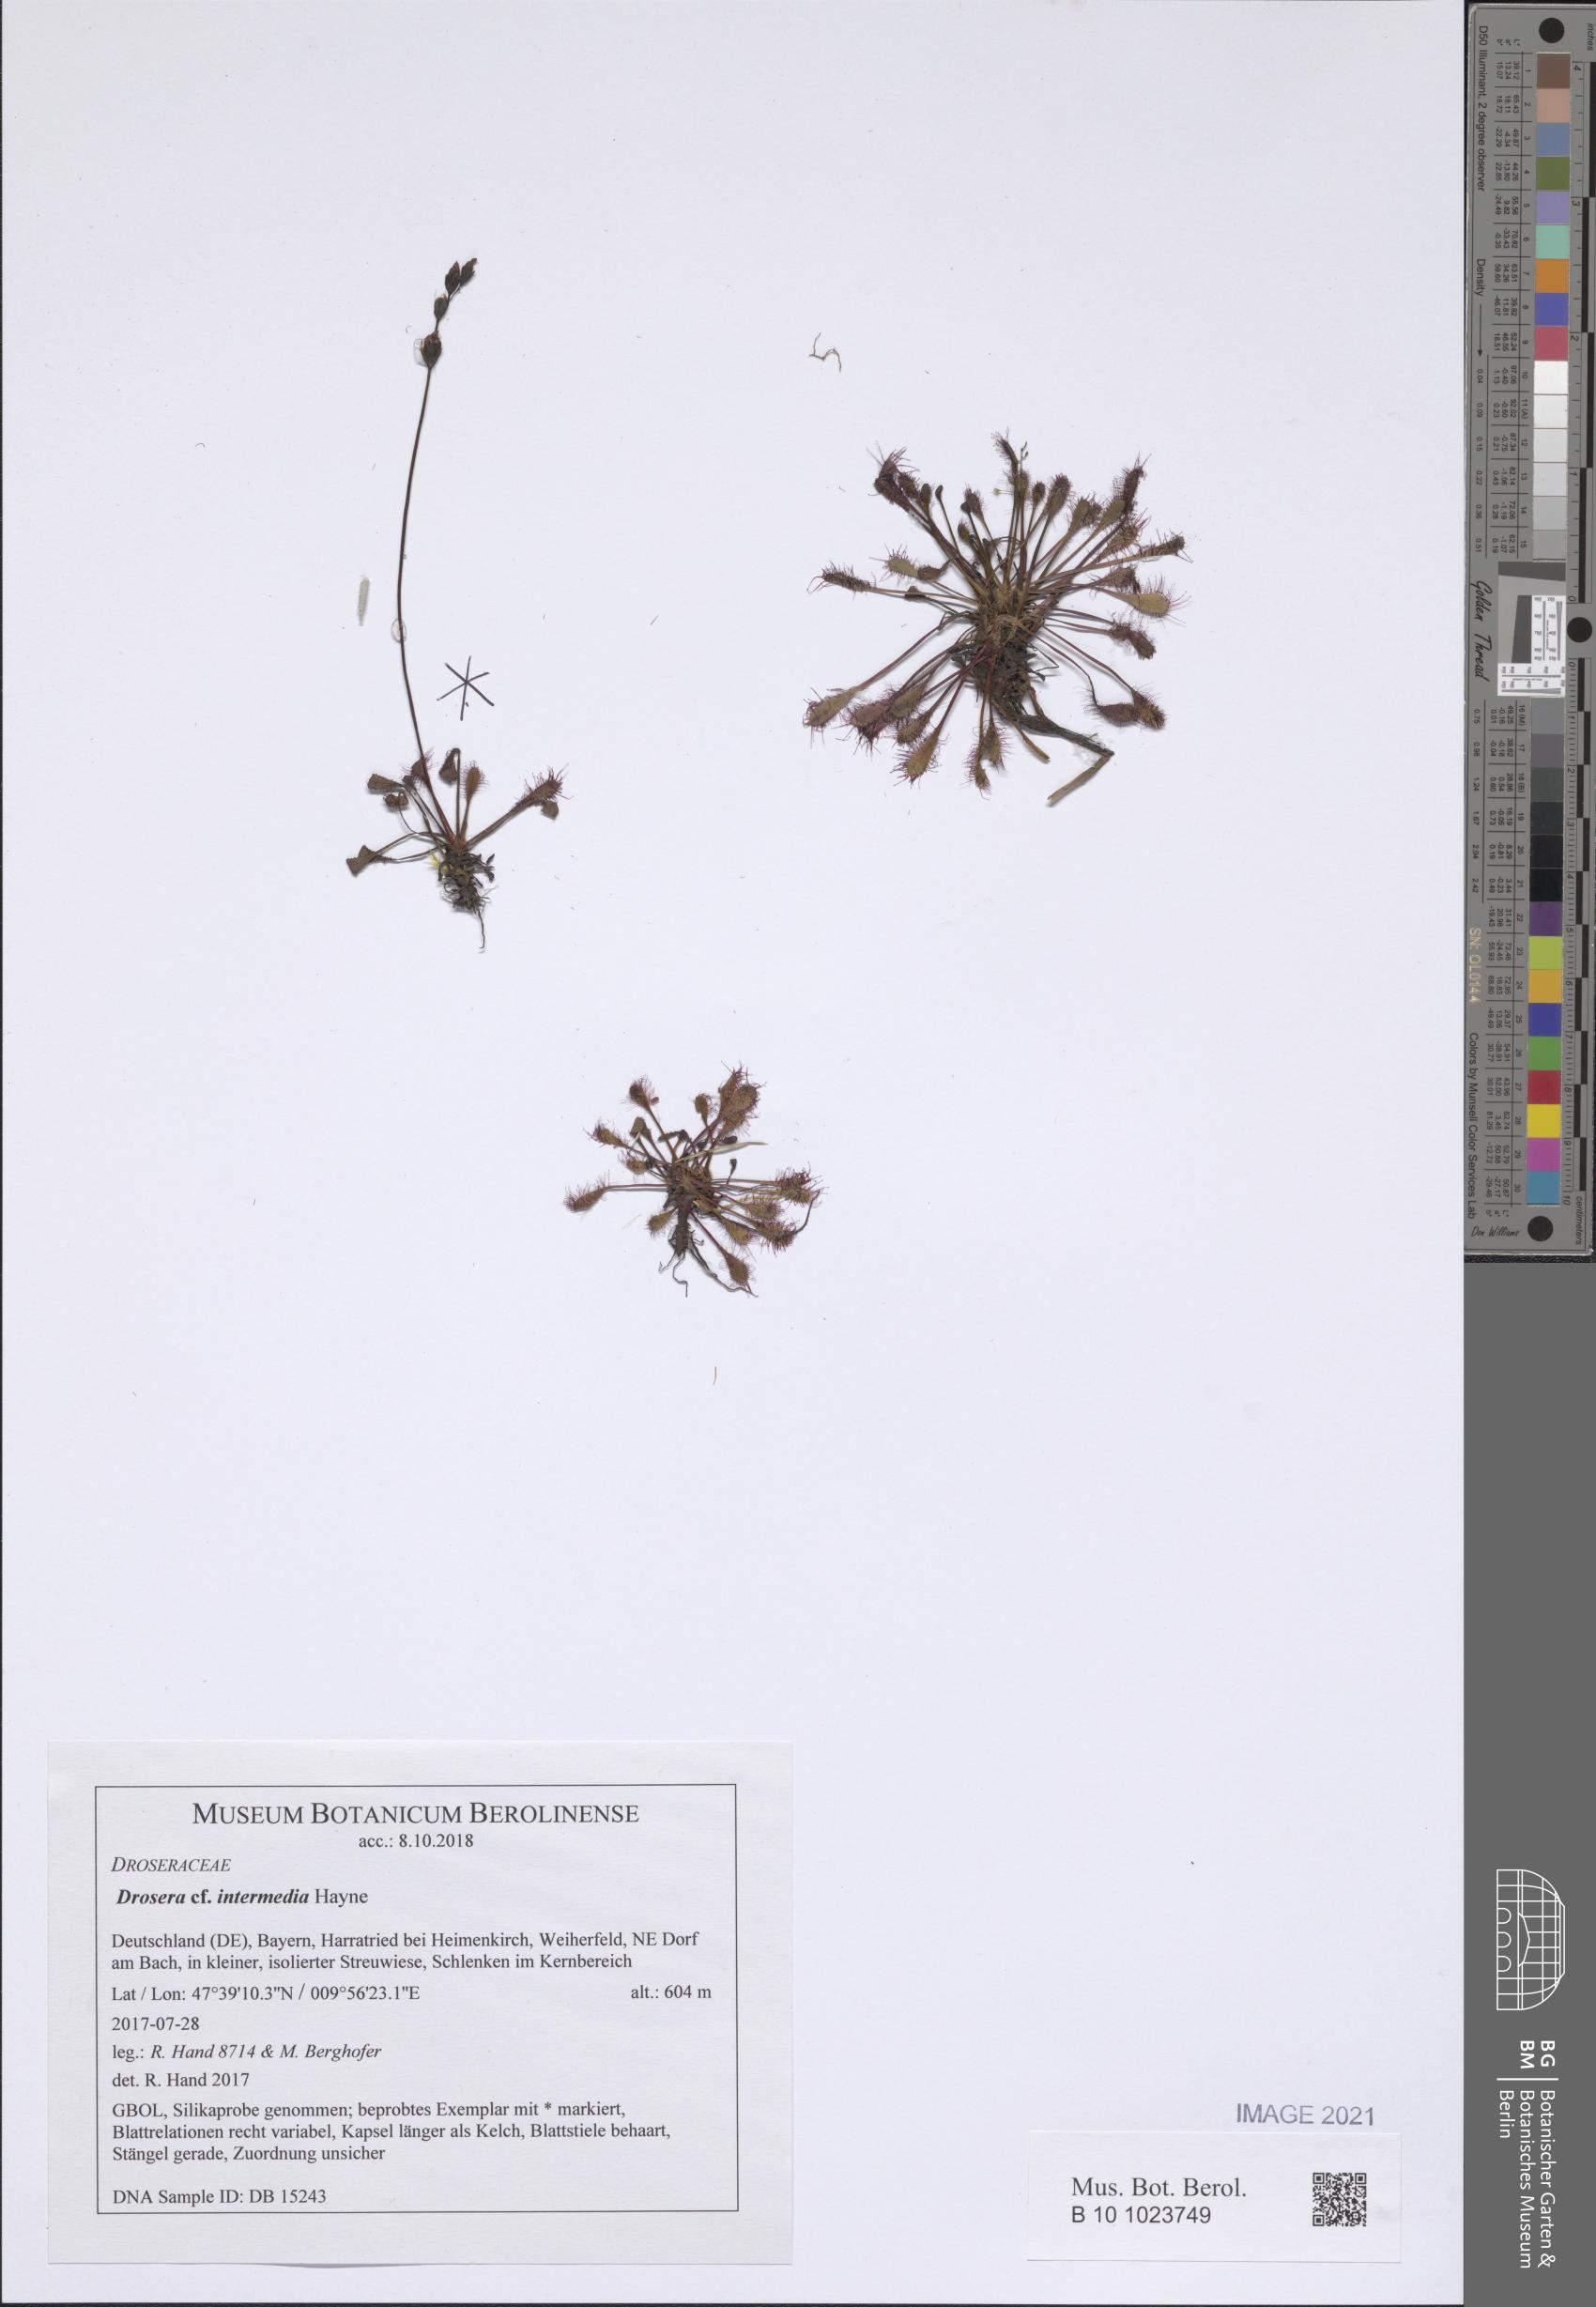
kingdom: Plantae
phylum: Tracheophyta
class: Magnoliopsida
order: Caryophyllales
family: Droseraceae
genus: Drosera
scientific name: Drosera intermedia
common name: Oblong-leaved sundew
